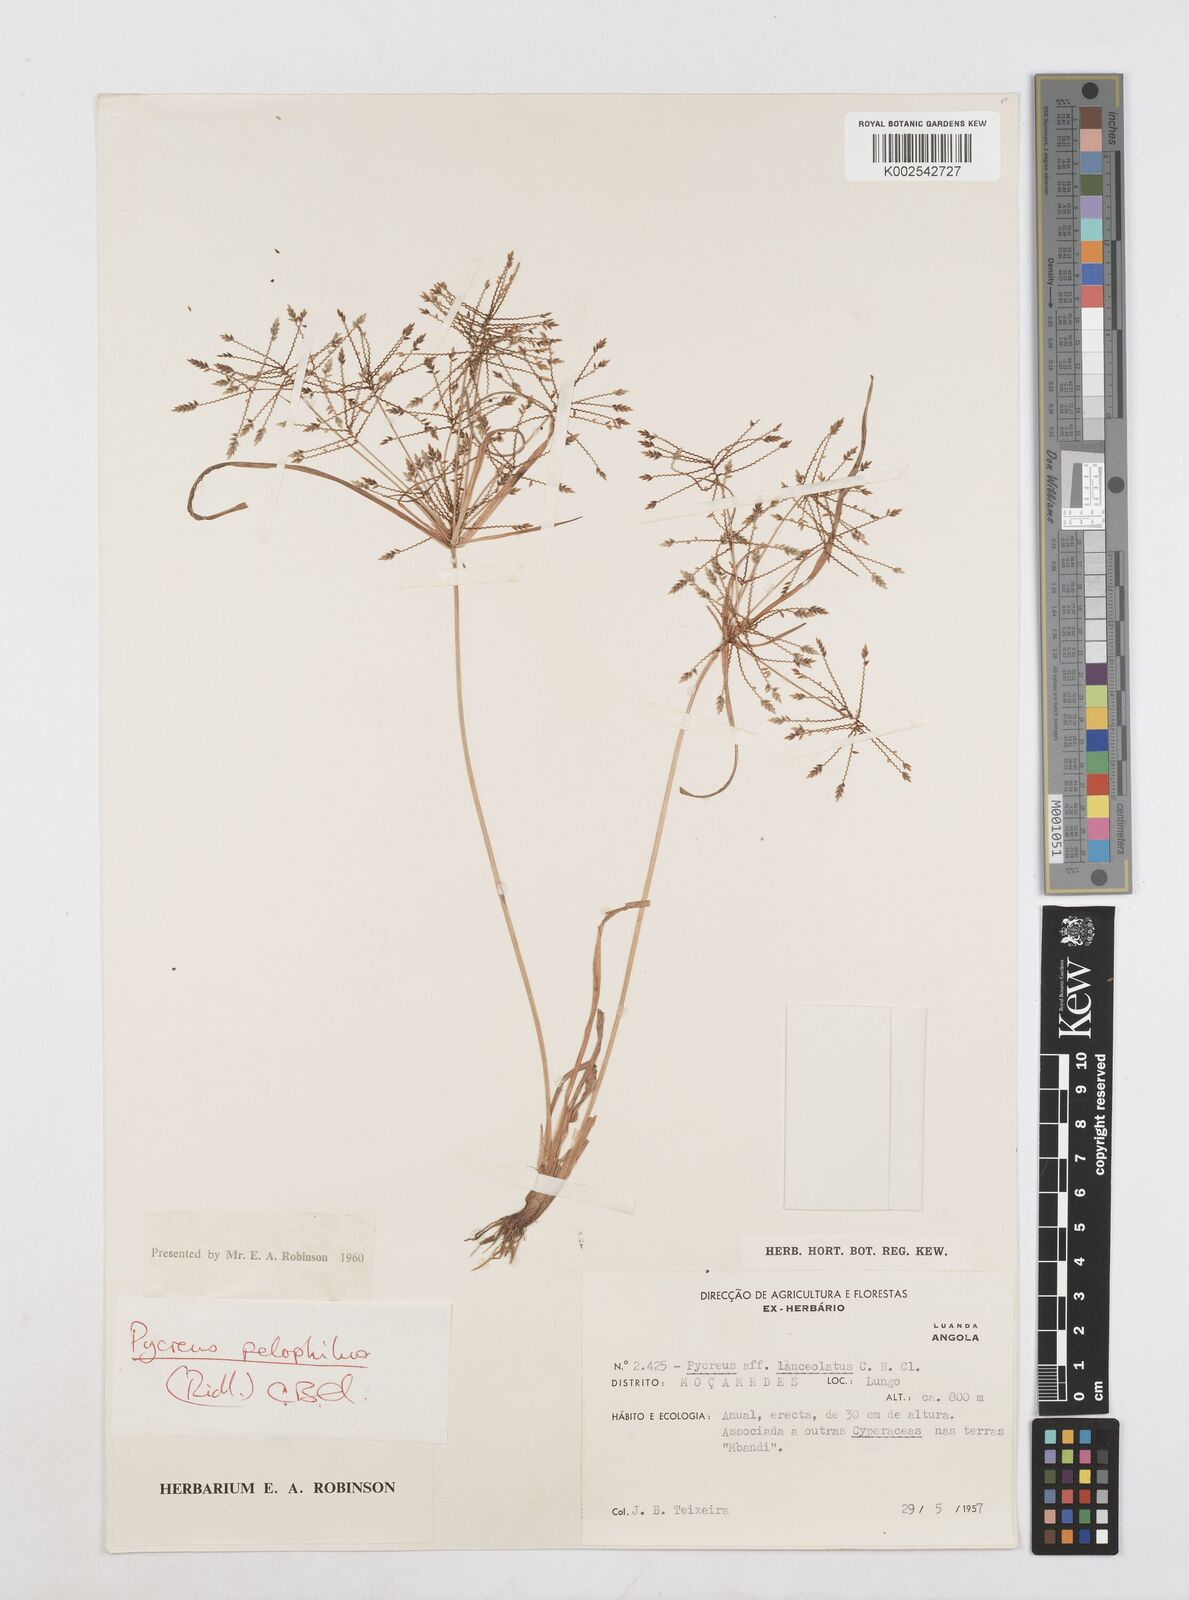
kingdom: Plantae
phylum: Tracheophyta
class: Liliopsida
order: Poales
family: Cyperaceae
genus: Cyperus
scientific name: Cyperus pelophilus
